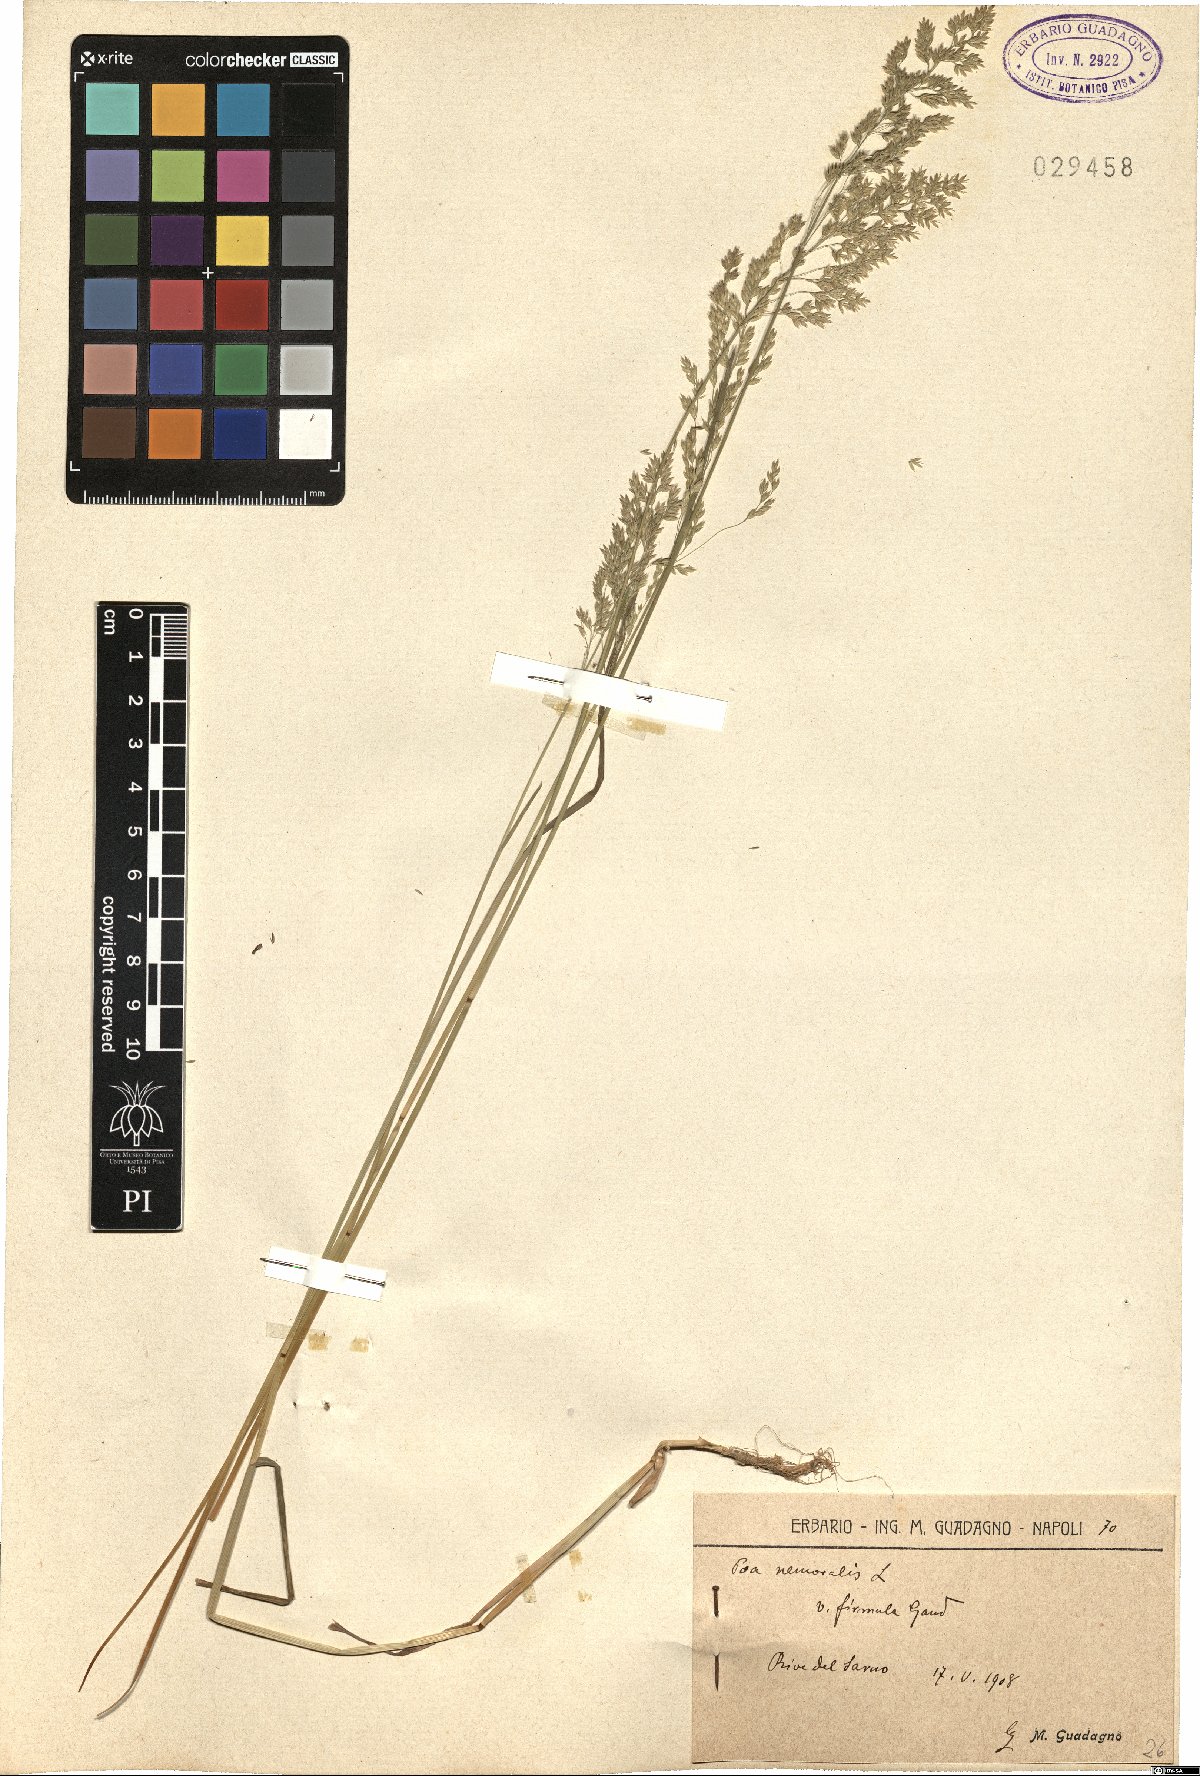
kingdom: Plantae
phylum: Tracheophyta
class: Liliopsida
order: Poales
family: Poaceae
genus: Poa
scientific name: Poa nemoralis
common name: Wood bluegrass
